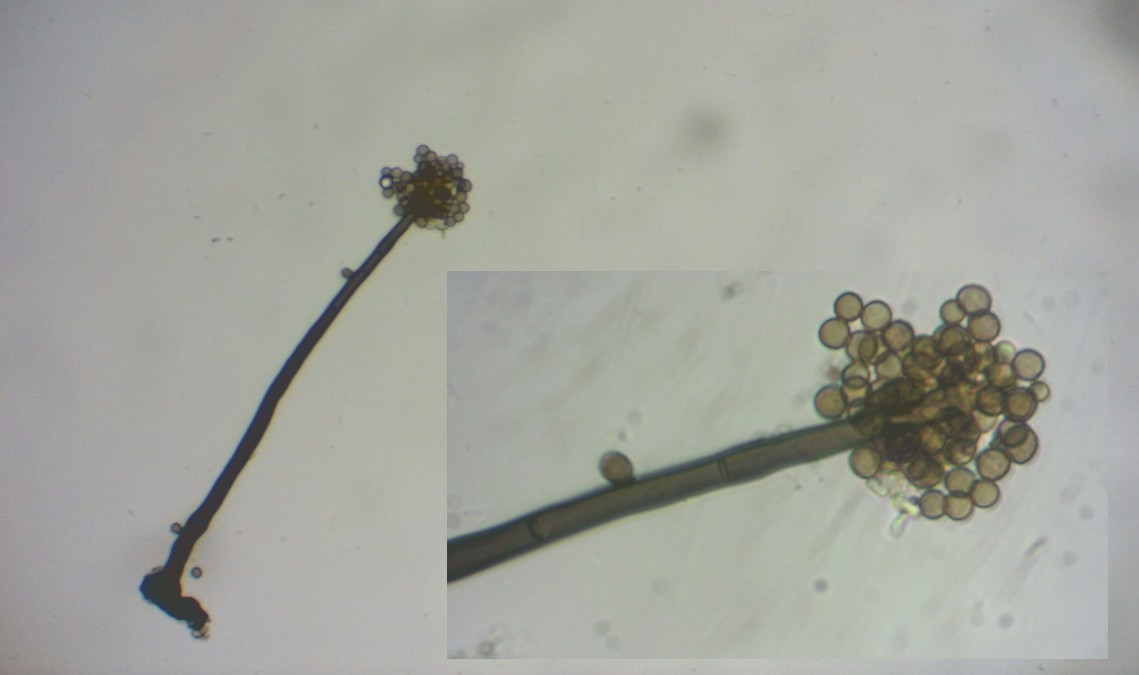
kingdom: Fungi
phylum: Ascomycota
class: Dothideomycetes
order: Pleosporales
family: Periconiaceae
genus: Periconia
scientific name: Periconia minutissima
